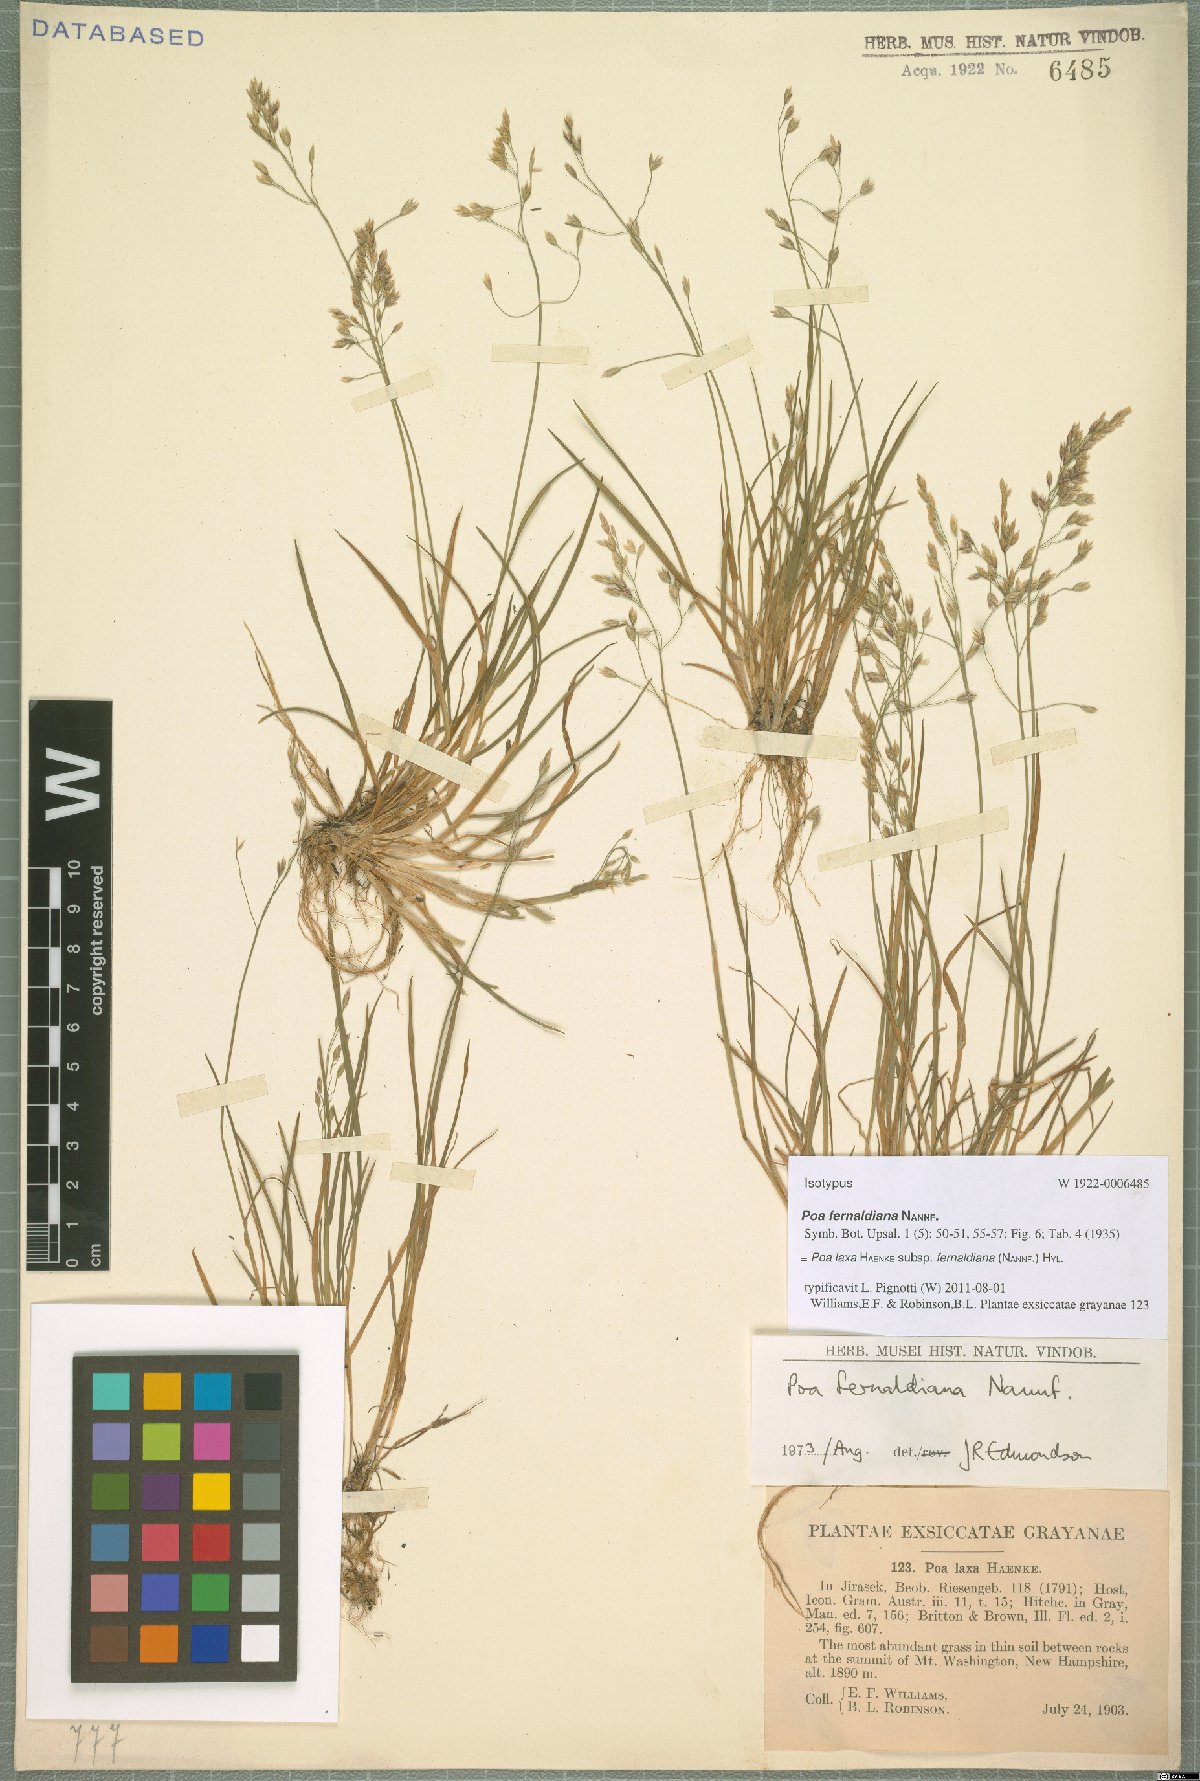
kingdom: Plantae
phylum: Tracheophyta
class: Liliopsida
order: Poales
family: Poaceae
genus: Poa
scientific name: Poa flexuosa
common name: Wavy meadow-grass
